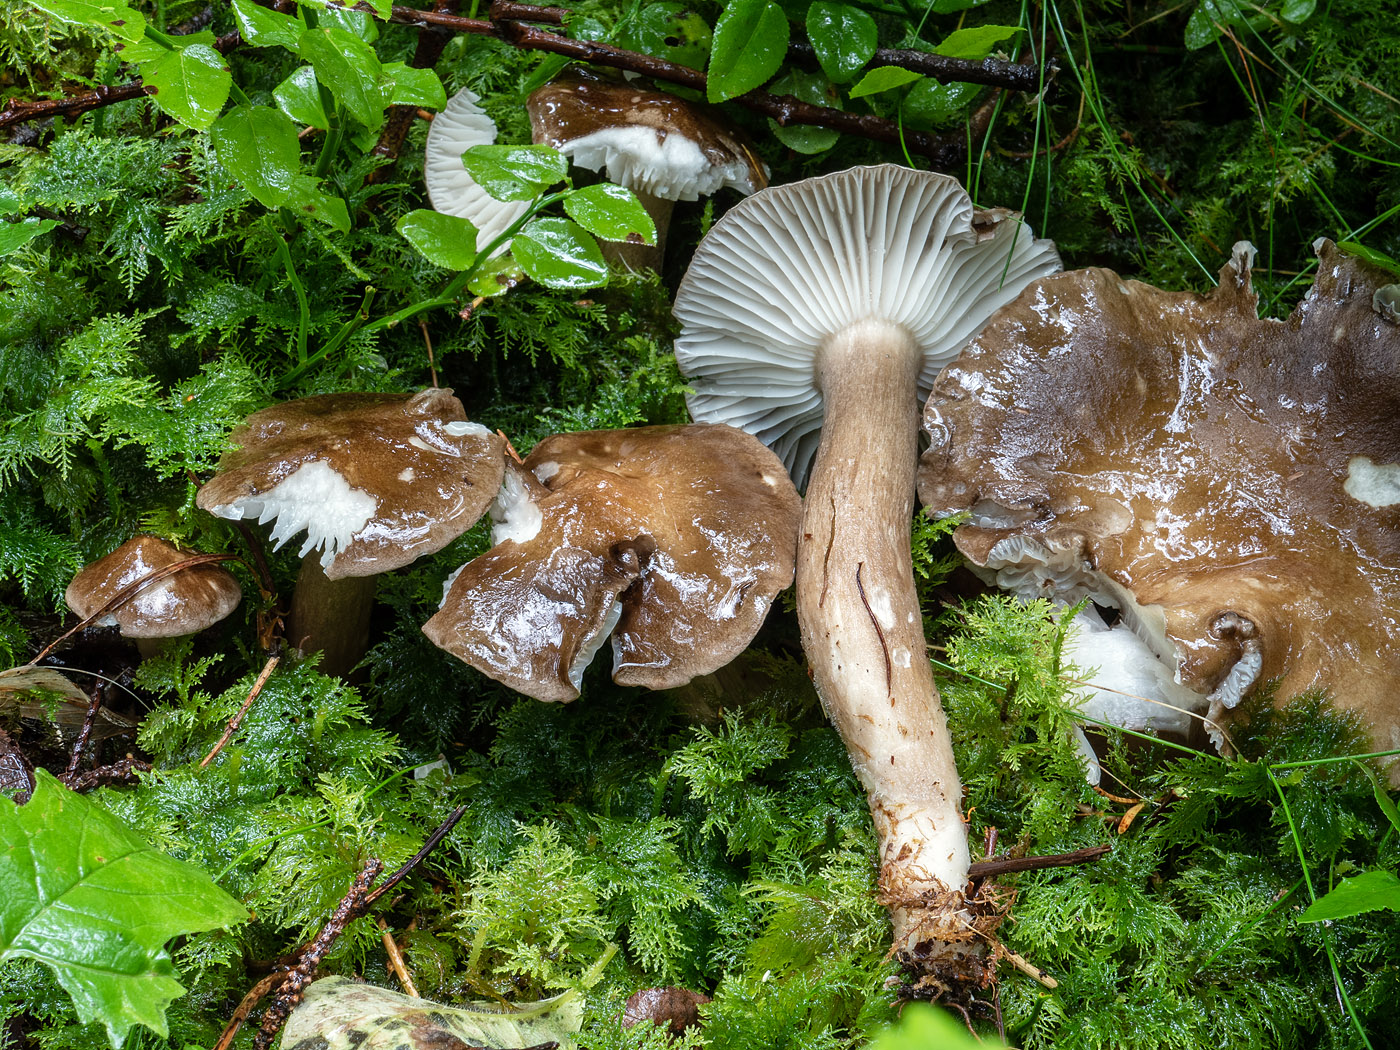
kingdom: Fungi
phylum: Basidiomycota
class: Agaricomycetes
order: Agaricales
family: Hygrophoraceae
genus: Hygrophorus
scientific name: Hygrophorus camarophyllus
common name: sodbrun sneglehat
